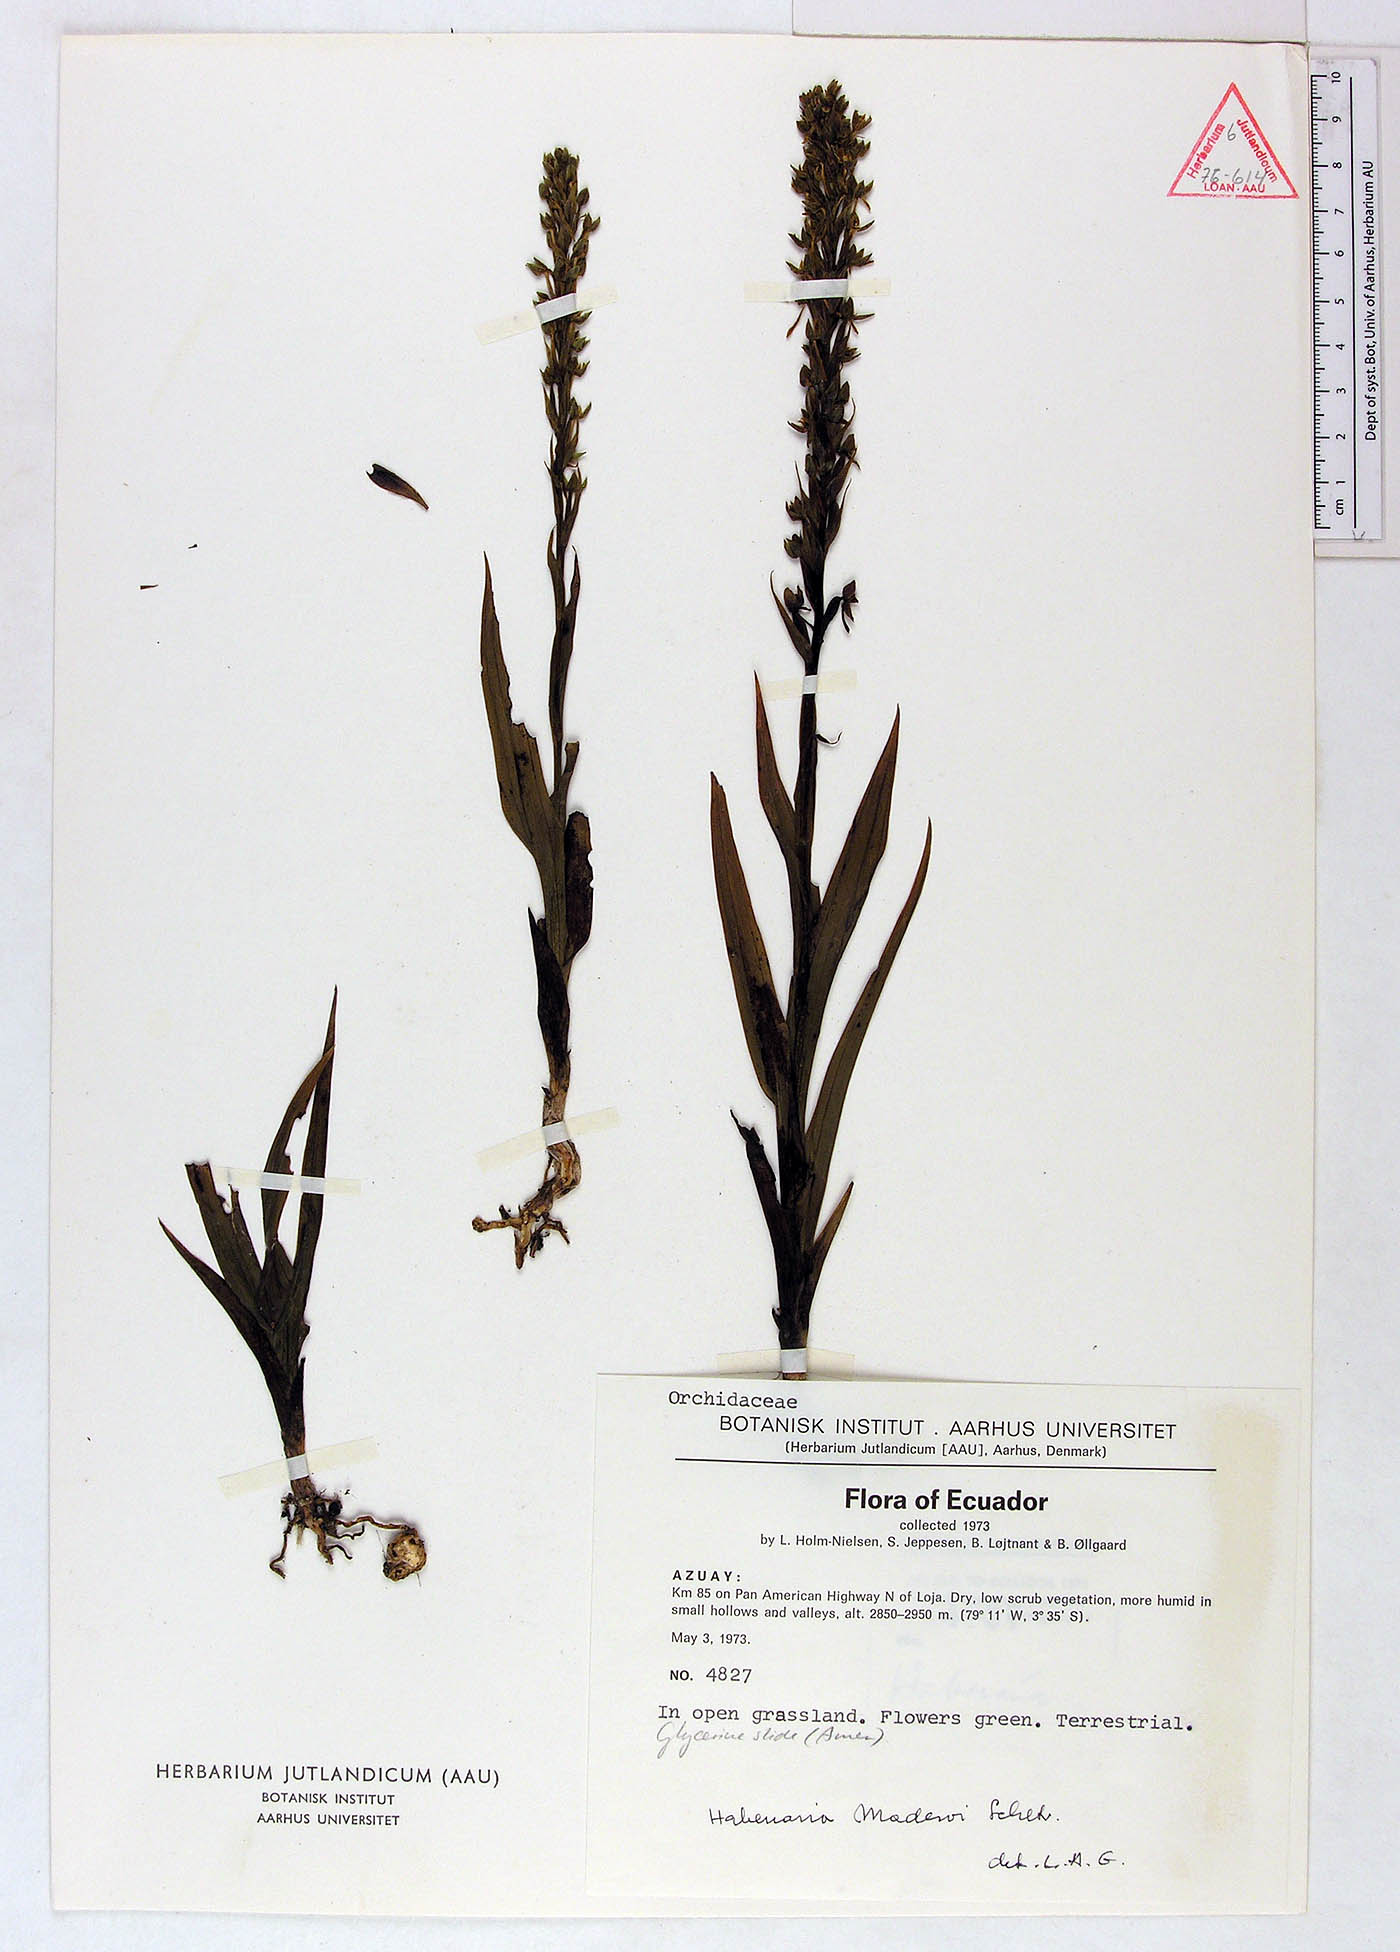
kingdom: Plantae
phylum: Tracheophyta
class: Liliopsida
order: Asparagales
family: Orchidaceae
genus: Habenaria
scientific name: Habenaria gollmeri
